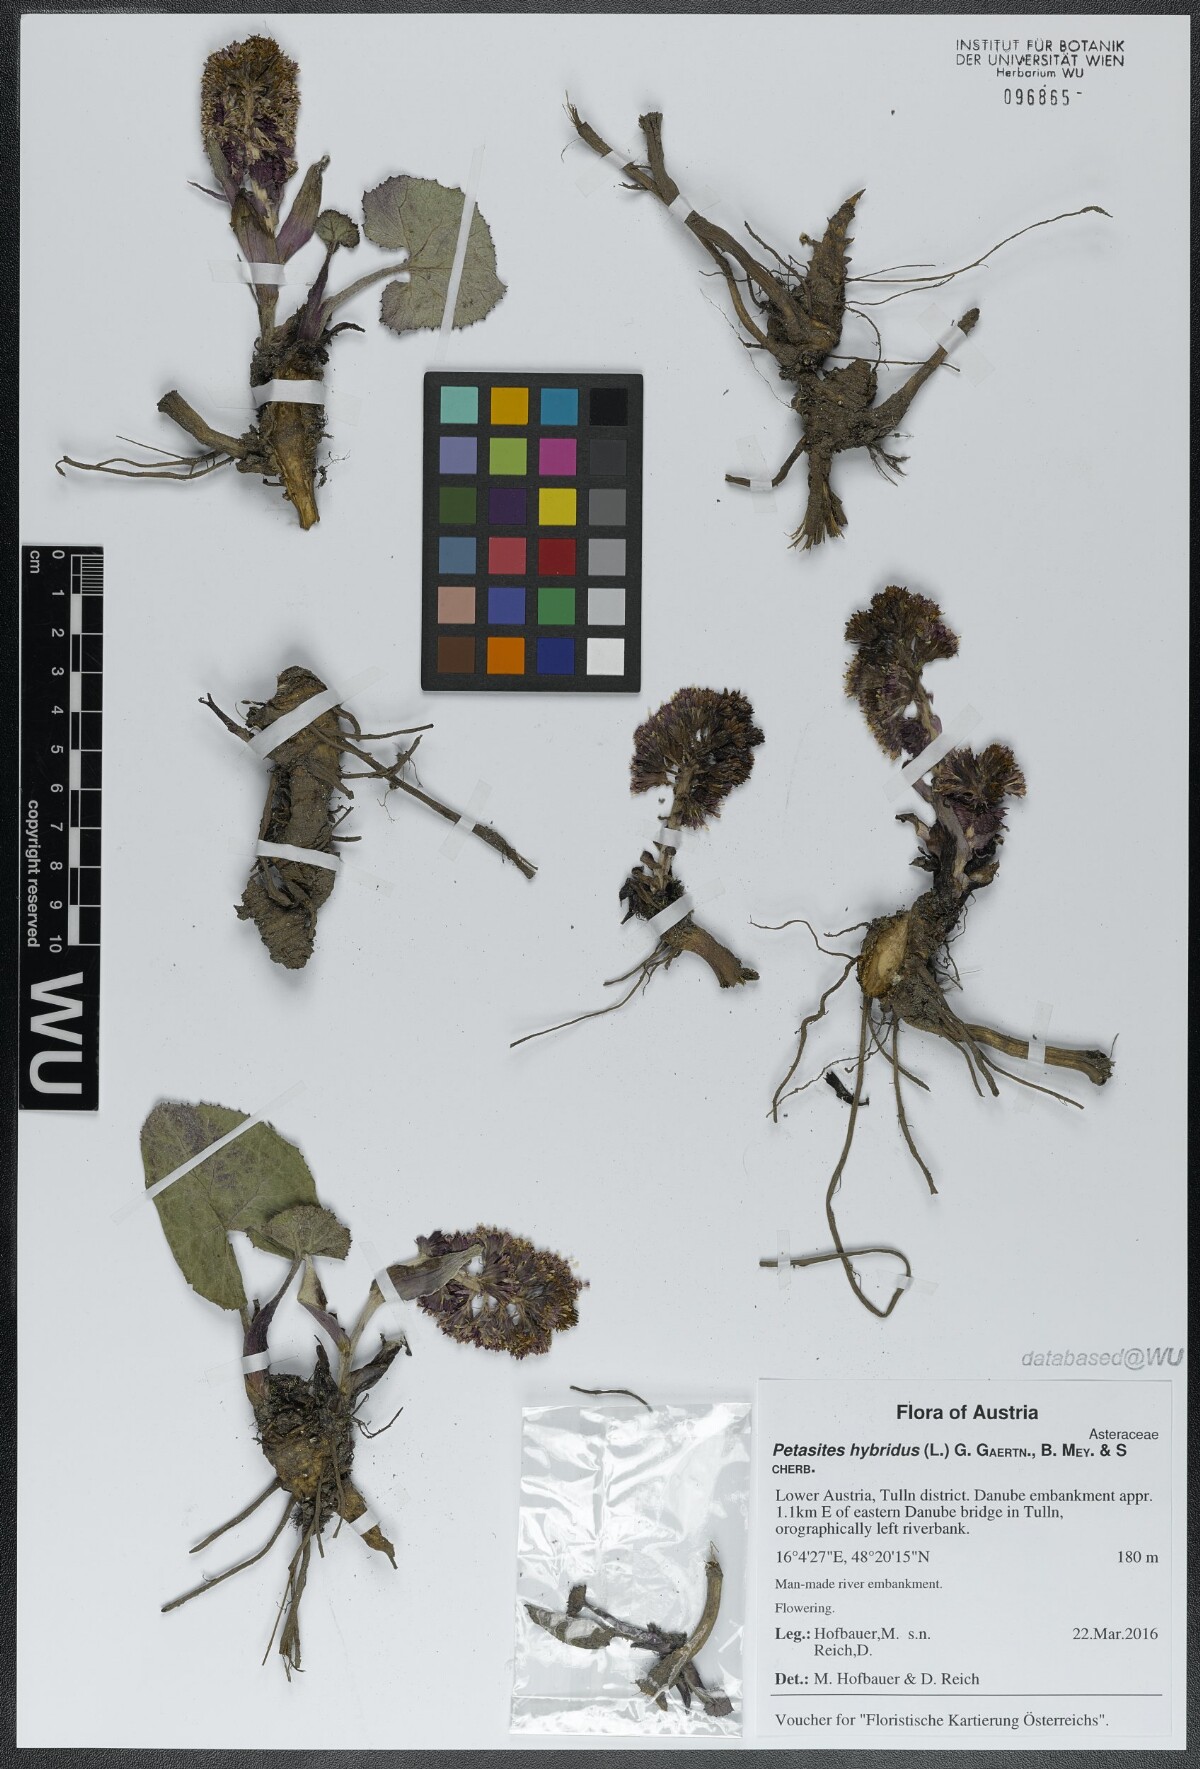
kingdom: Plantae
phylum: Tracheophyta
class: Magnoliopsida
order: Asterales
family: Asteraceae
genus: Petasites
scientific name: Petasites hybridus
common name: Butterbur
